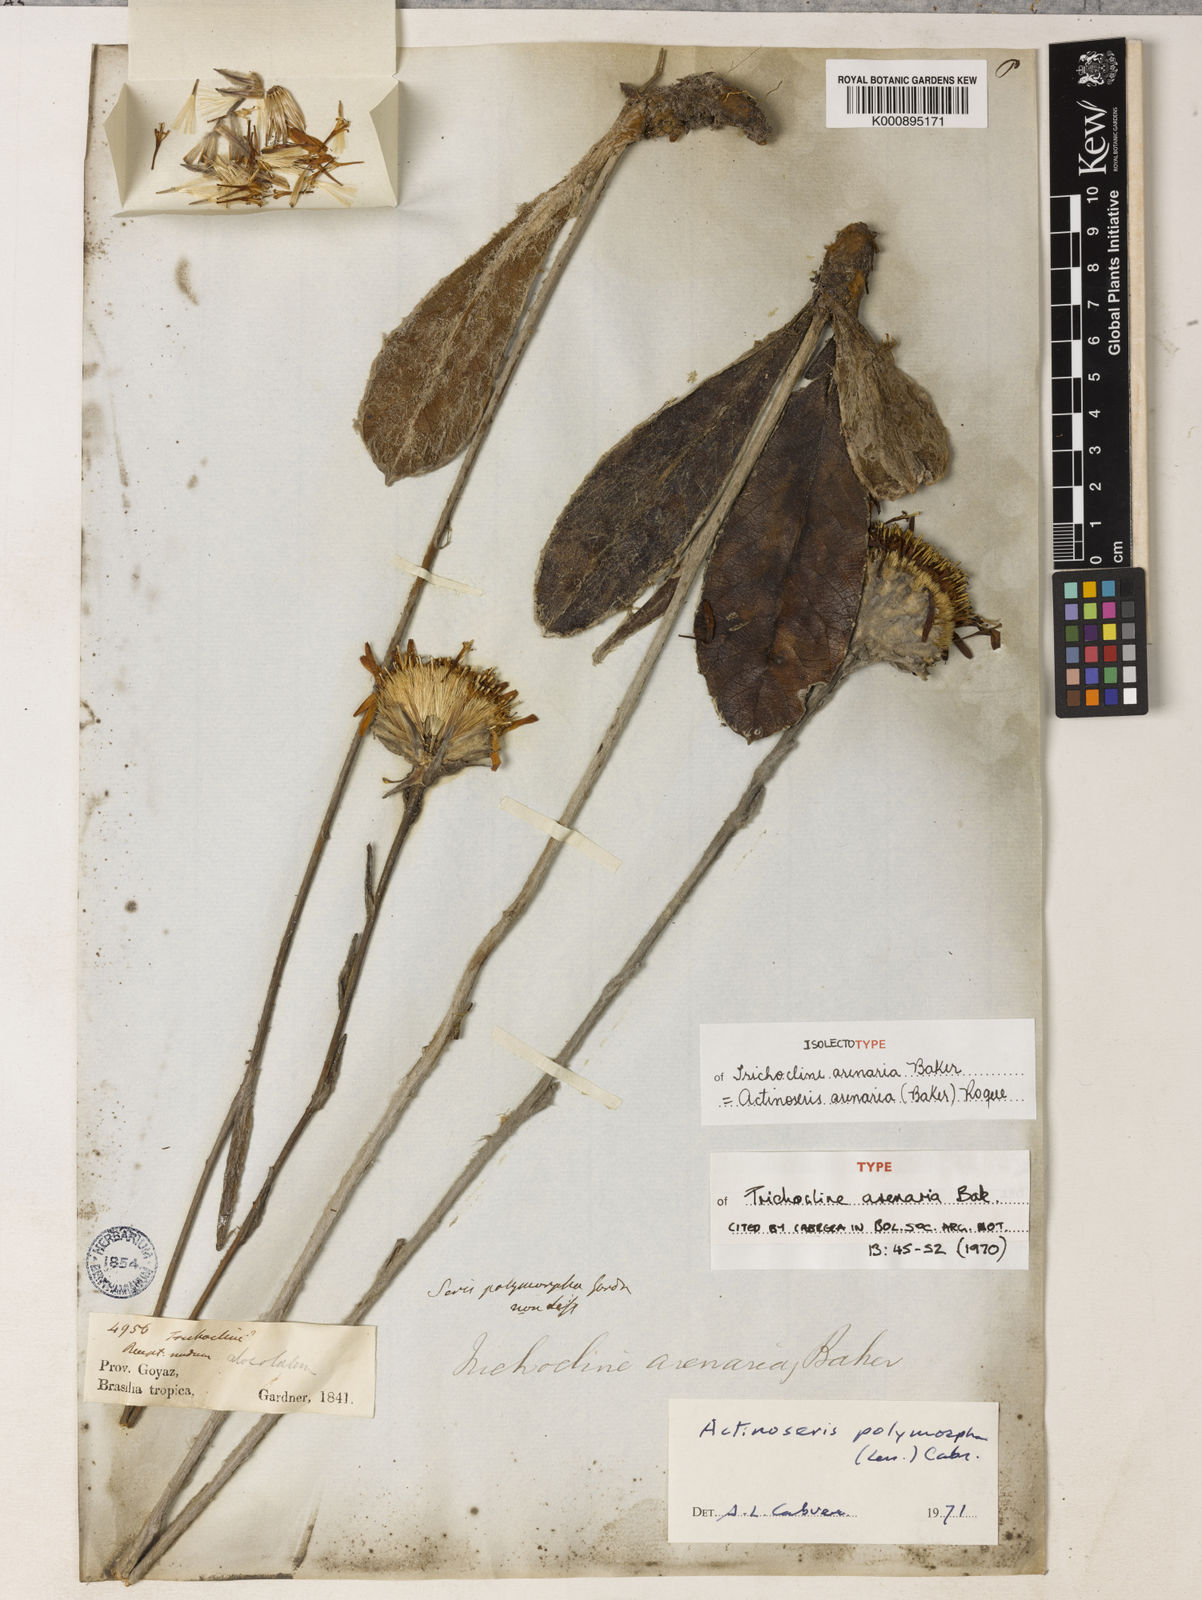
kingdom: Plantae
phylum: Tracheophyta
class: Magnoliopsida
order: Asterales
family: Asteraceae
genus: Richterago
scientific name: Richterago arenaria
